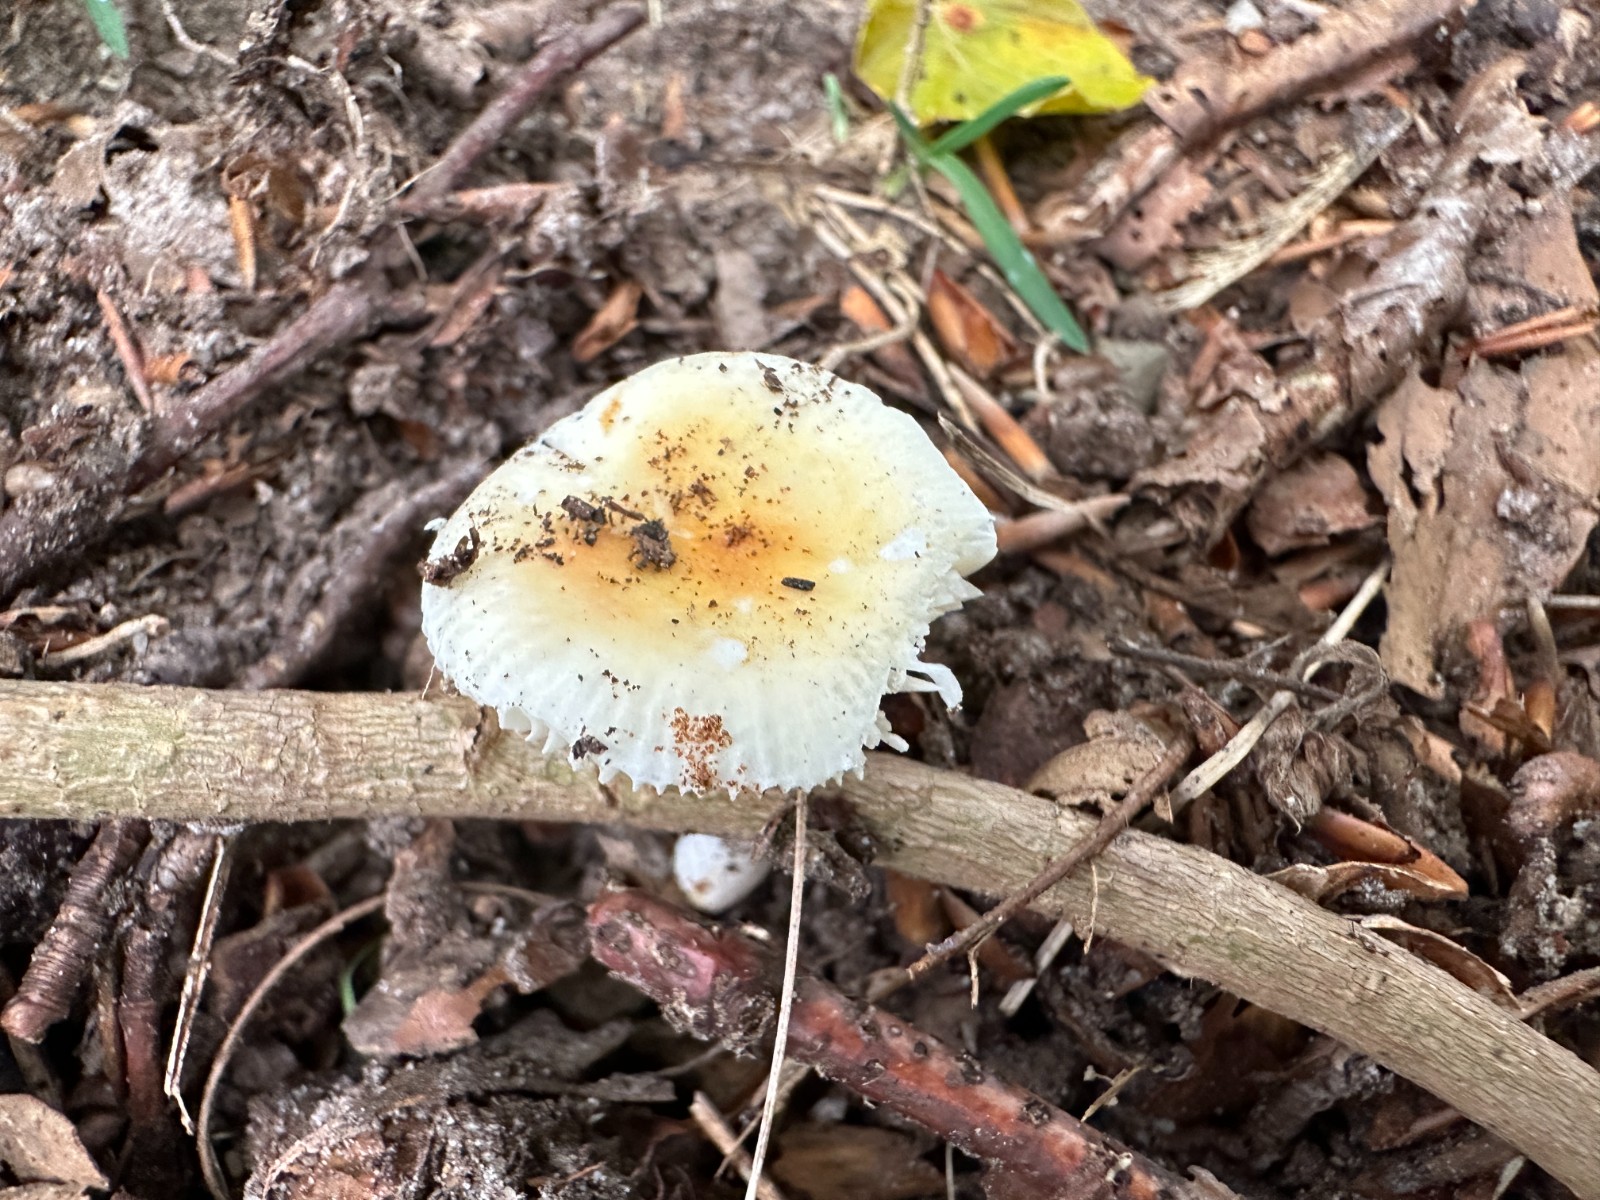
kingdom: Fungi
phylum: Basidiomycota
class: Agaricomycetes
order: Russulales
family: Russulaceae
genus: Russula
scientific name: Russula solaris
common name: sol-skørhat
